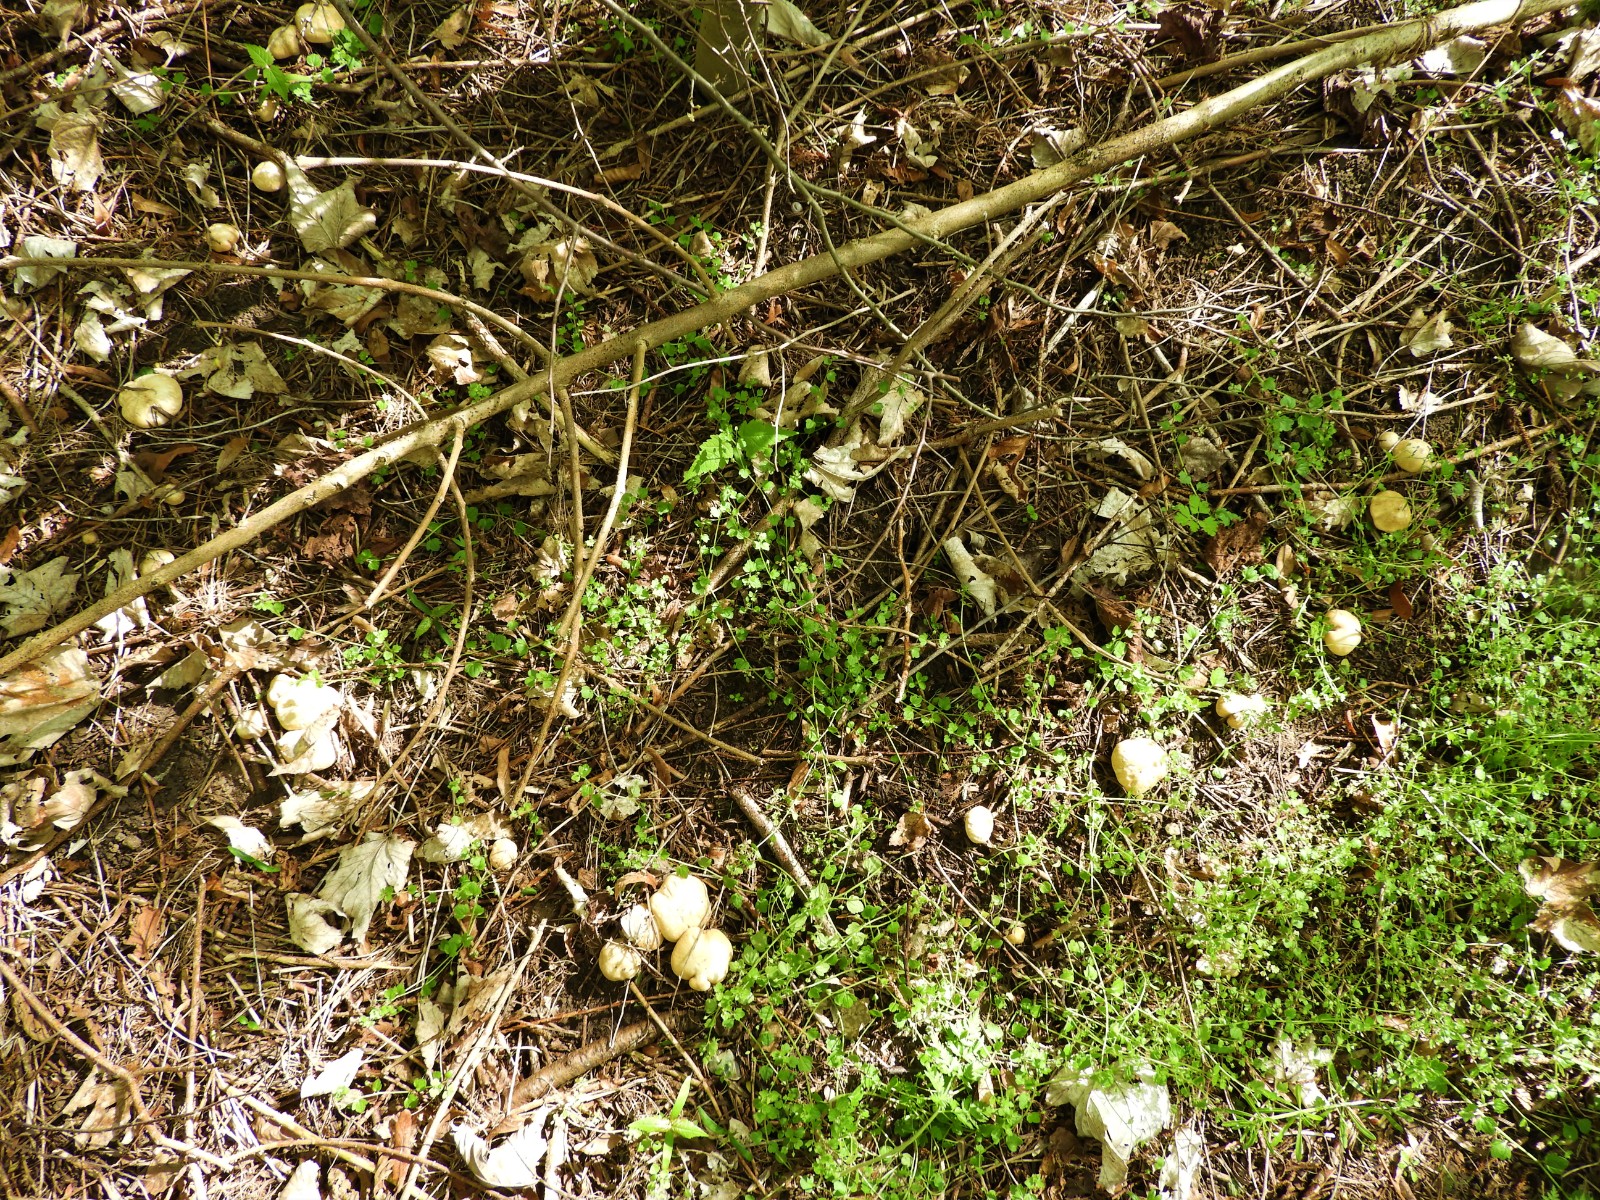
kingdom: Fungi
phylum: Basidiomycota
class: Agaricomycetes
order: Agaricales
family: Lyophyllaceae
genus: Calocybe
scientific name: Calocybe gambosa
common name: vårmusseron
